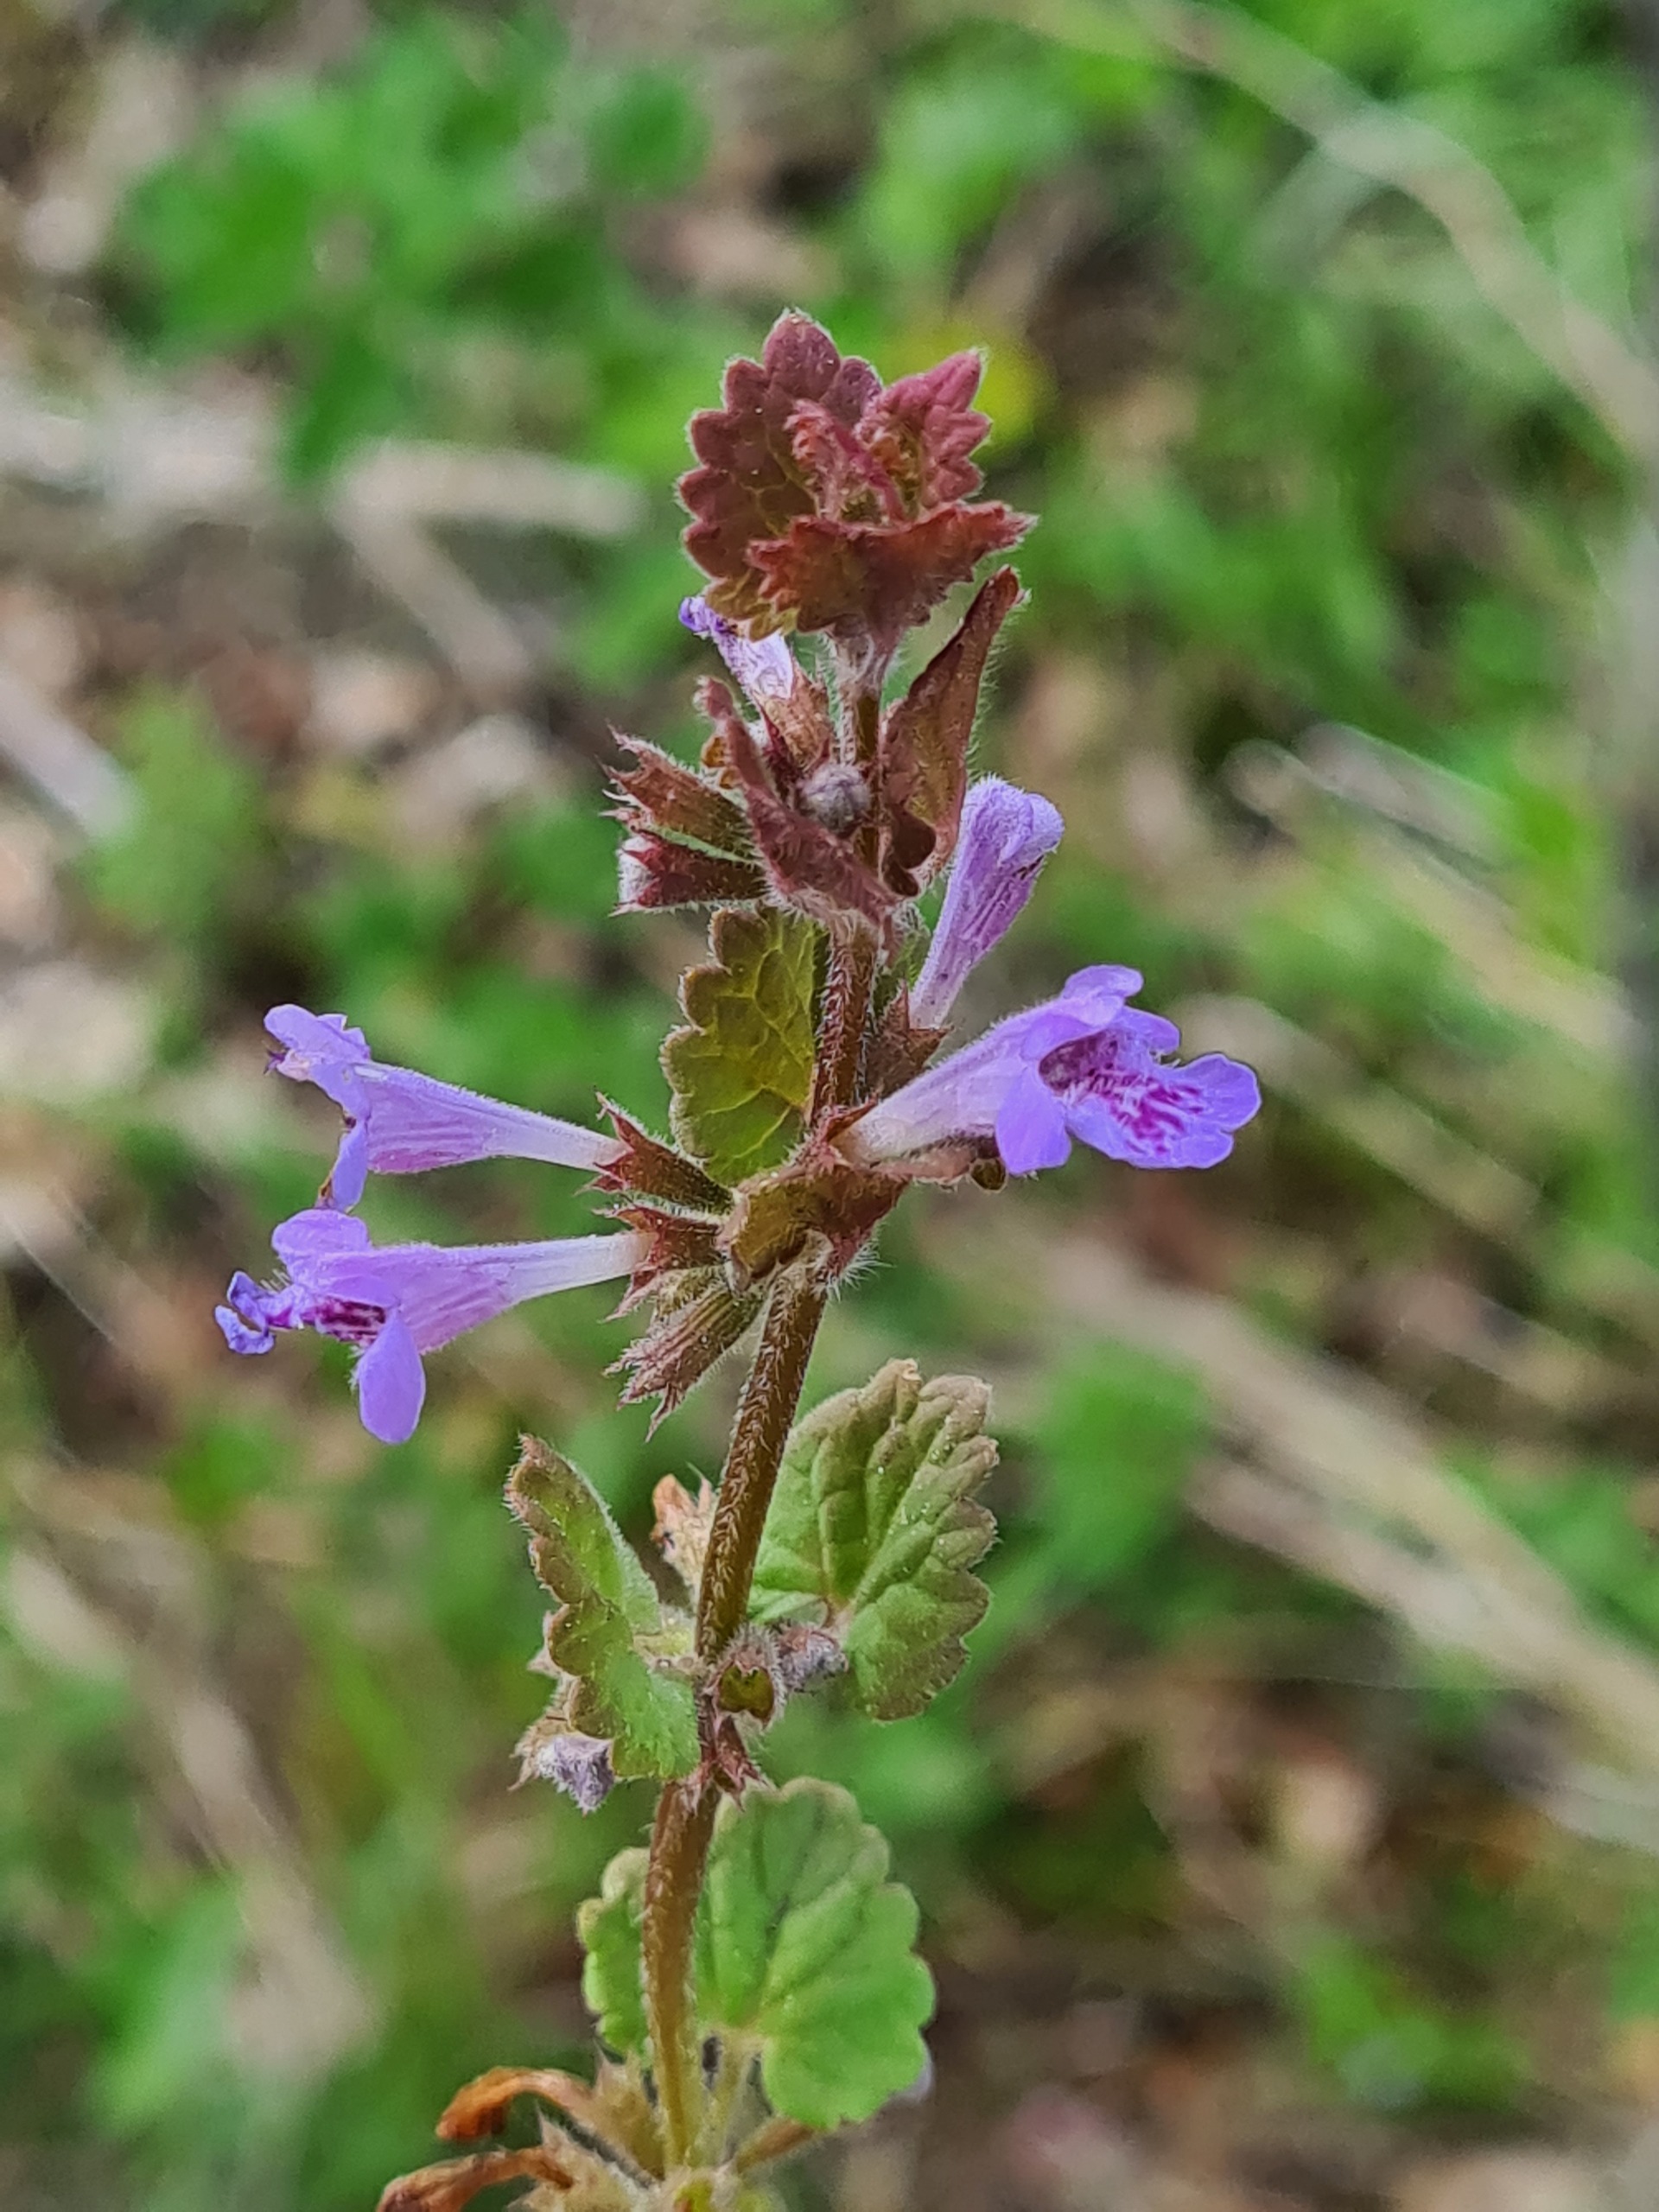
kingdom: Plantae
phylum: Tracheophyta
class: Magnoliopsida
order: Lamiales
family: Lamiaceae
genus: Glechoma
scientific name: Glechoma hederacea
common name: Korsknap
